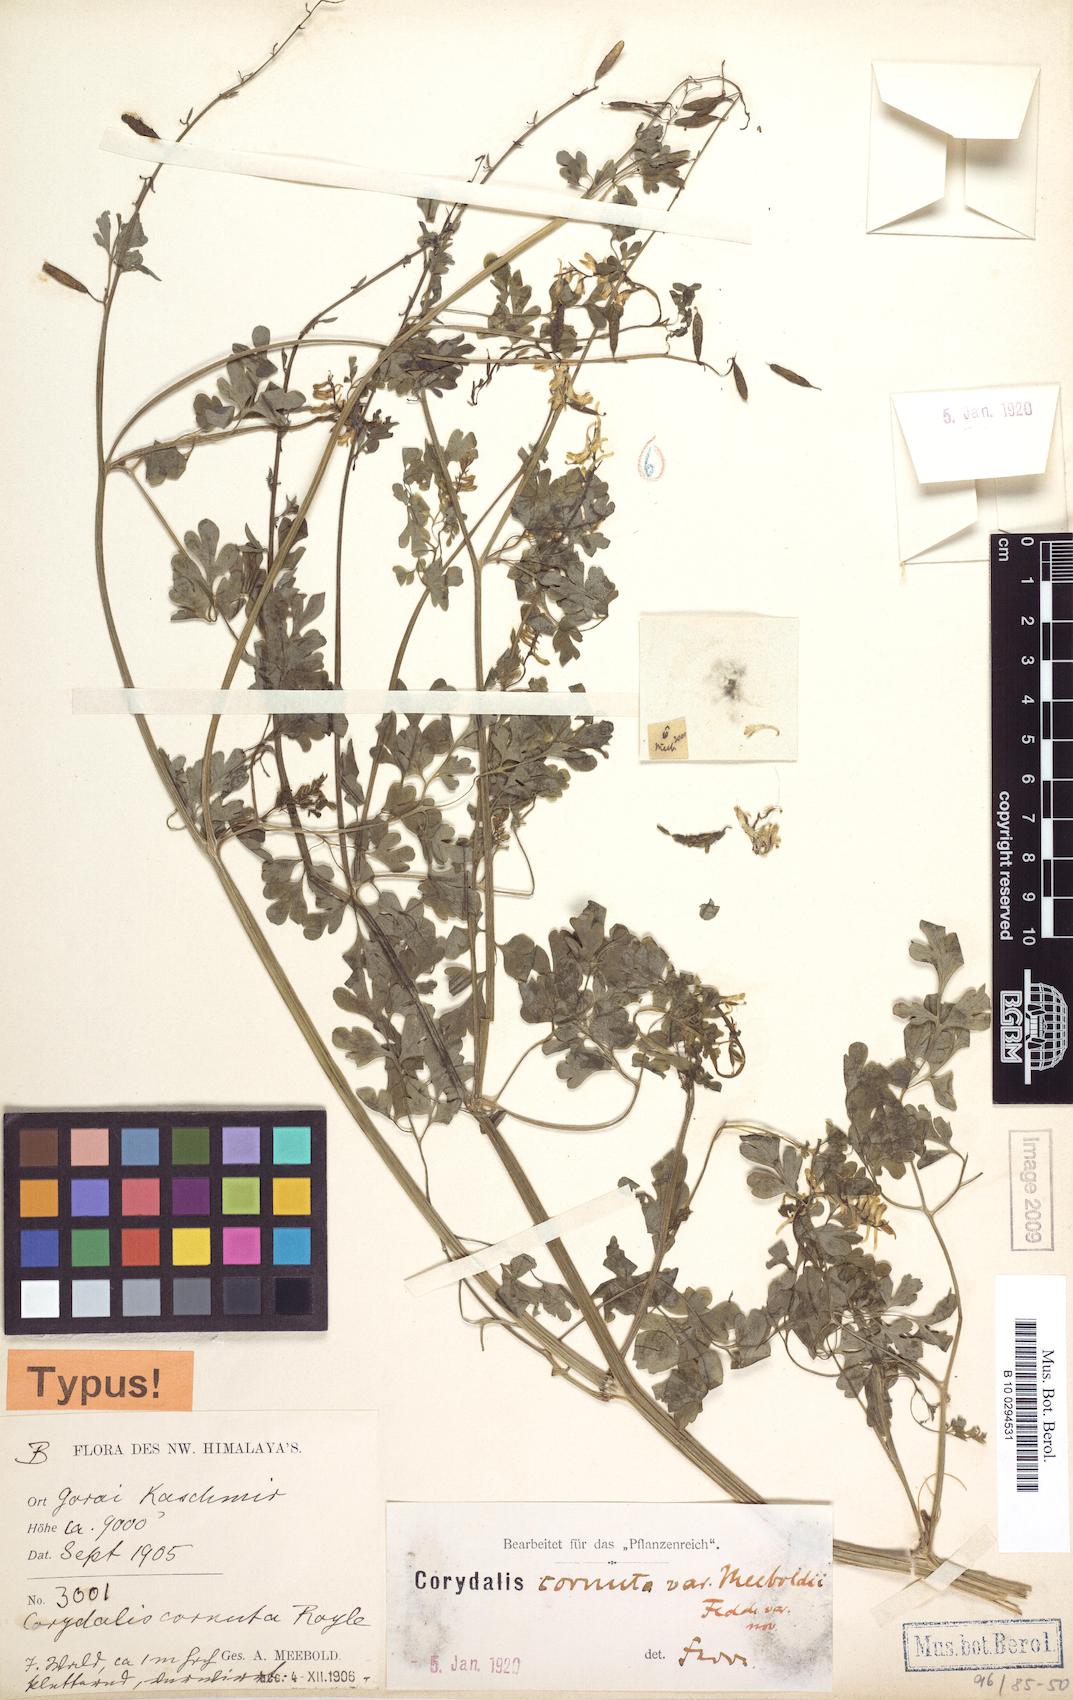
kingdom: Plantae
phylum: Tracheophyta
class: Magnoliopsida
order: Ranunculales
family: Papaveraceae
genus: Corydalis
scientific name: Corydalis cornuta
